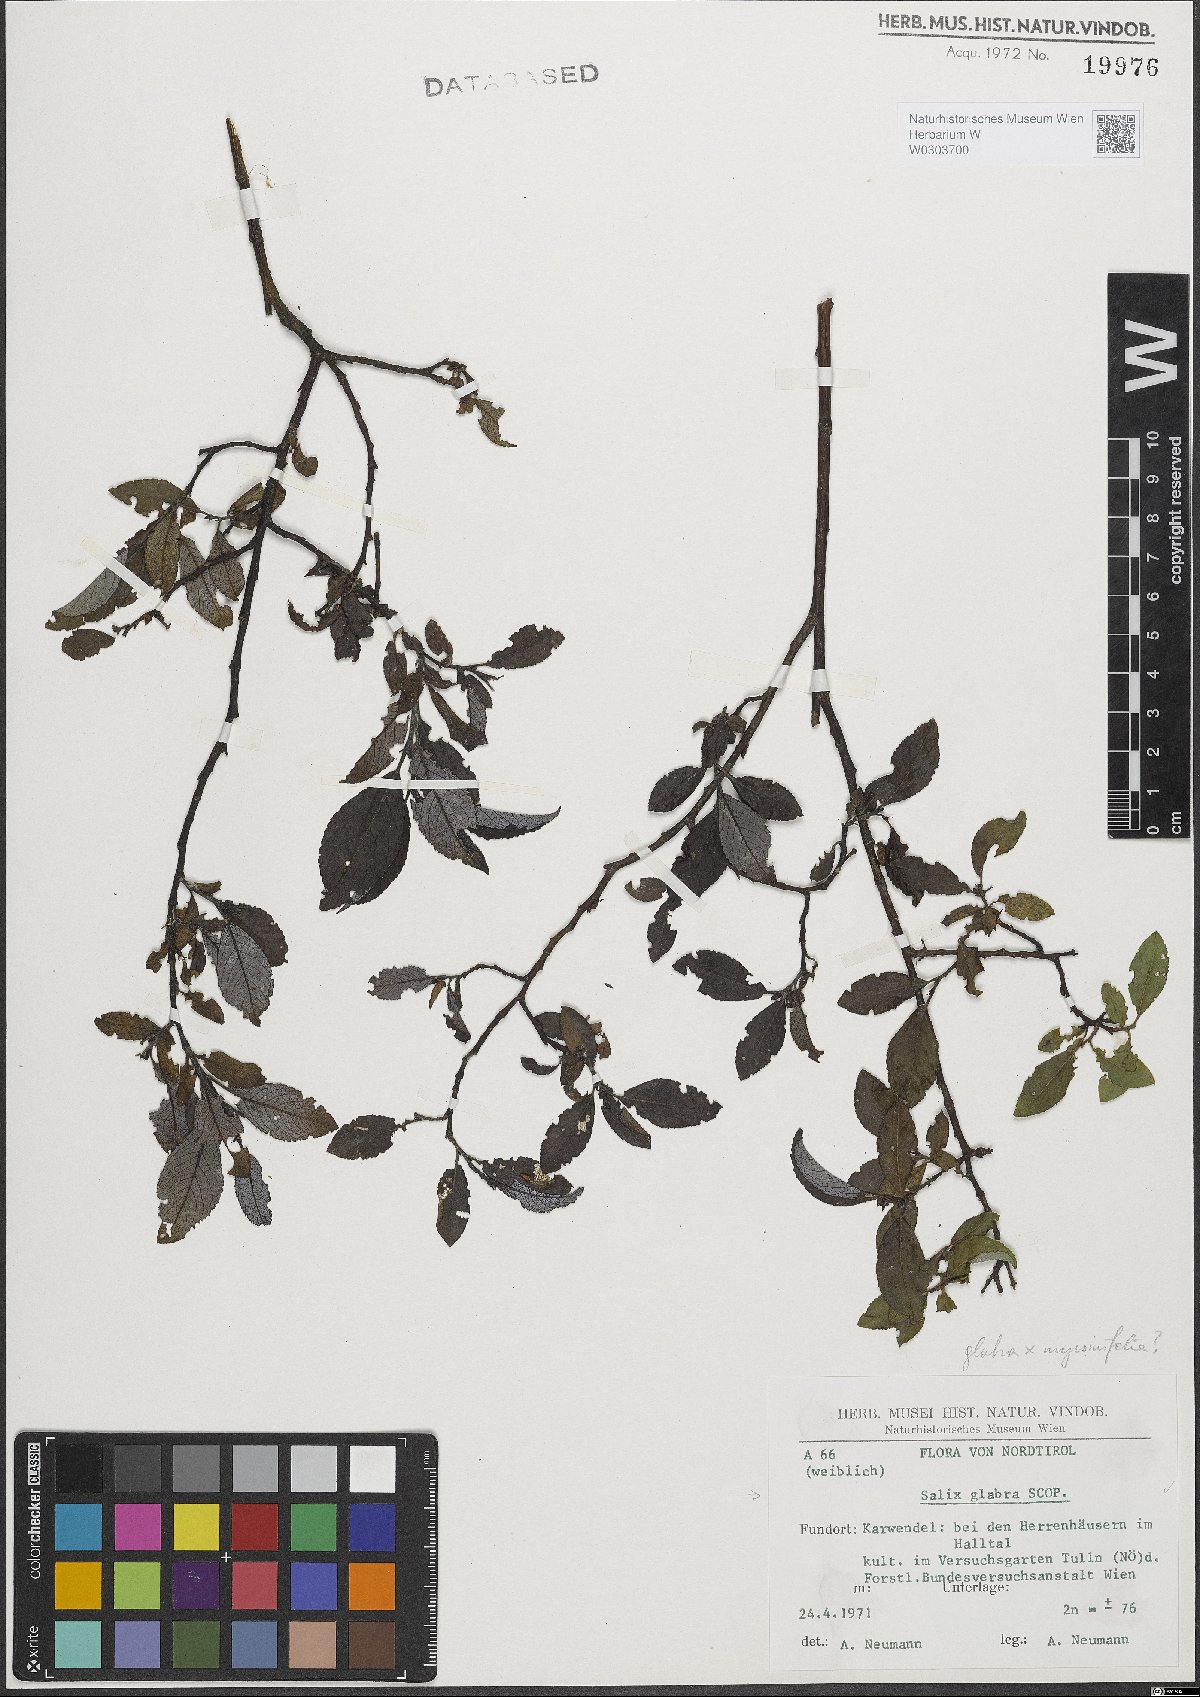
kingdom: Plantae
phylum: Tracheophyta
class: Magnoliopsida
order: Malpighiales
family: Salicaceae
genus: Salix
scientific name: Salix glabra
